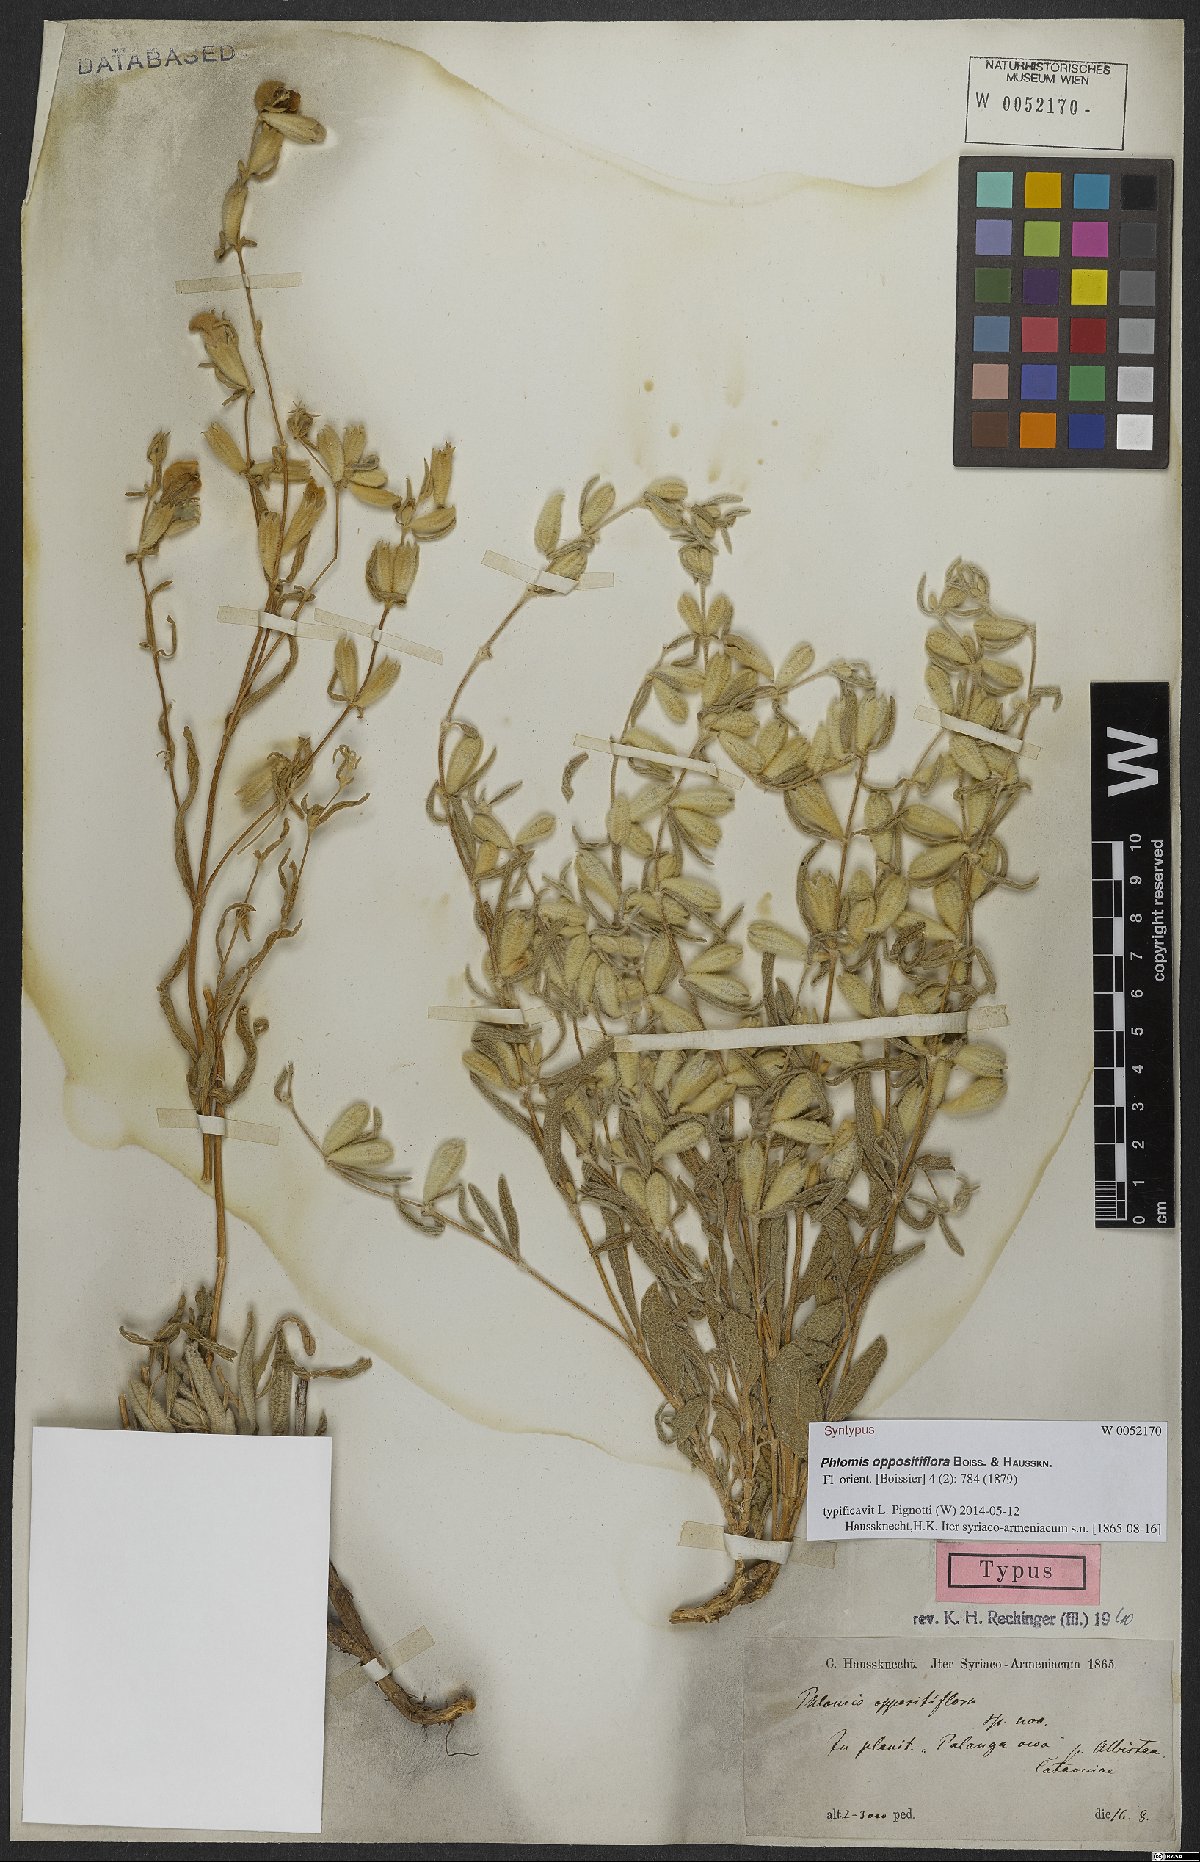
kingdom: Plantae
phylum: Tracheophyta
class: Magnoliopsida
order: Lamiales
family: Lamiaceae
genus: Phlomis
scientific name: Phlomis oppositiflora
